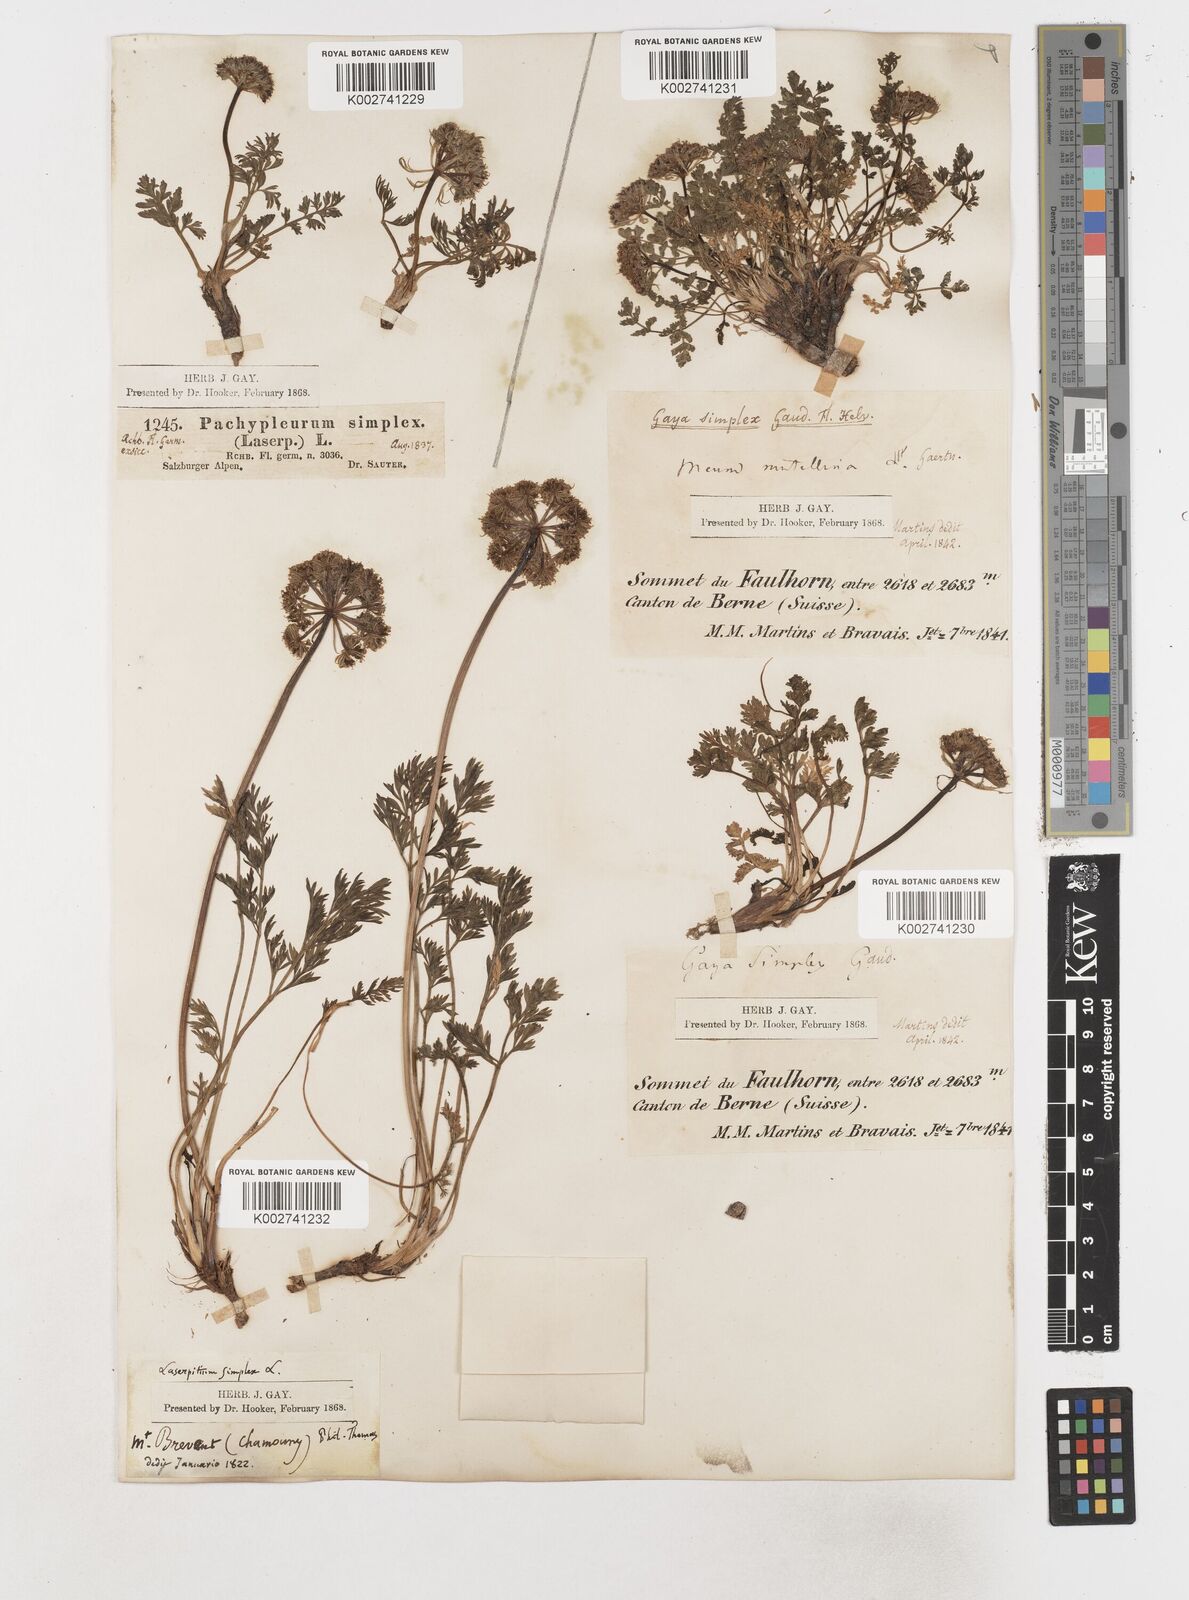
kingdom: Plantae
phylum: Tracheophyta
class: Magnoliopsida
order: Apiales
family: Apiaceae
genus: Pachypleurum
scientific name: Pachypleurum mutellinoides
